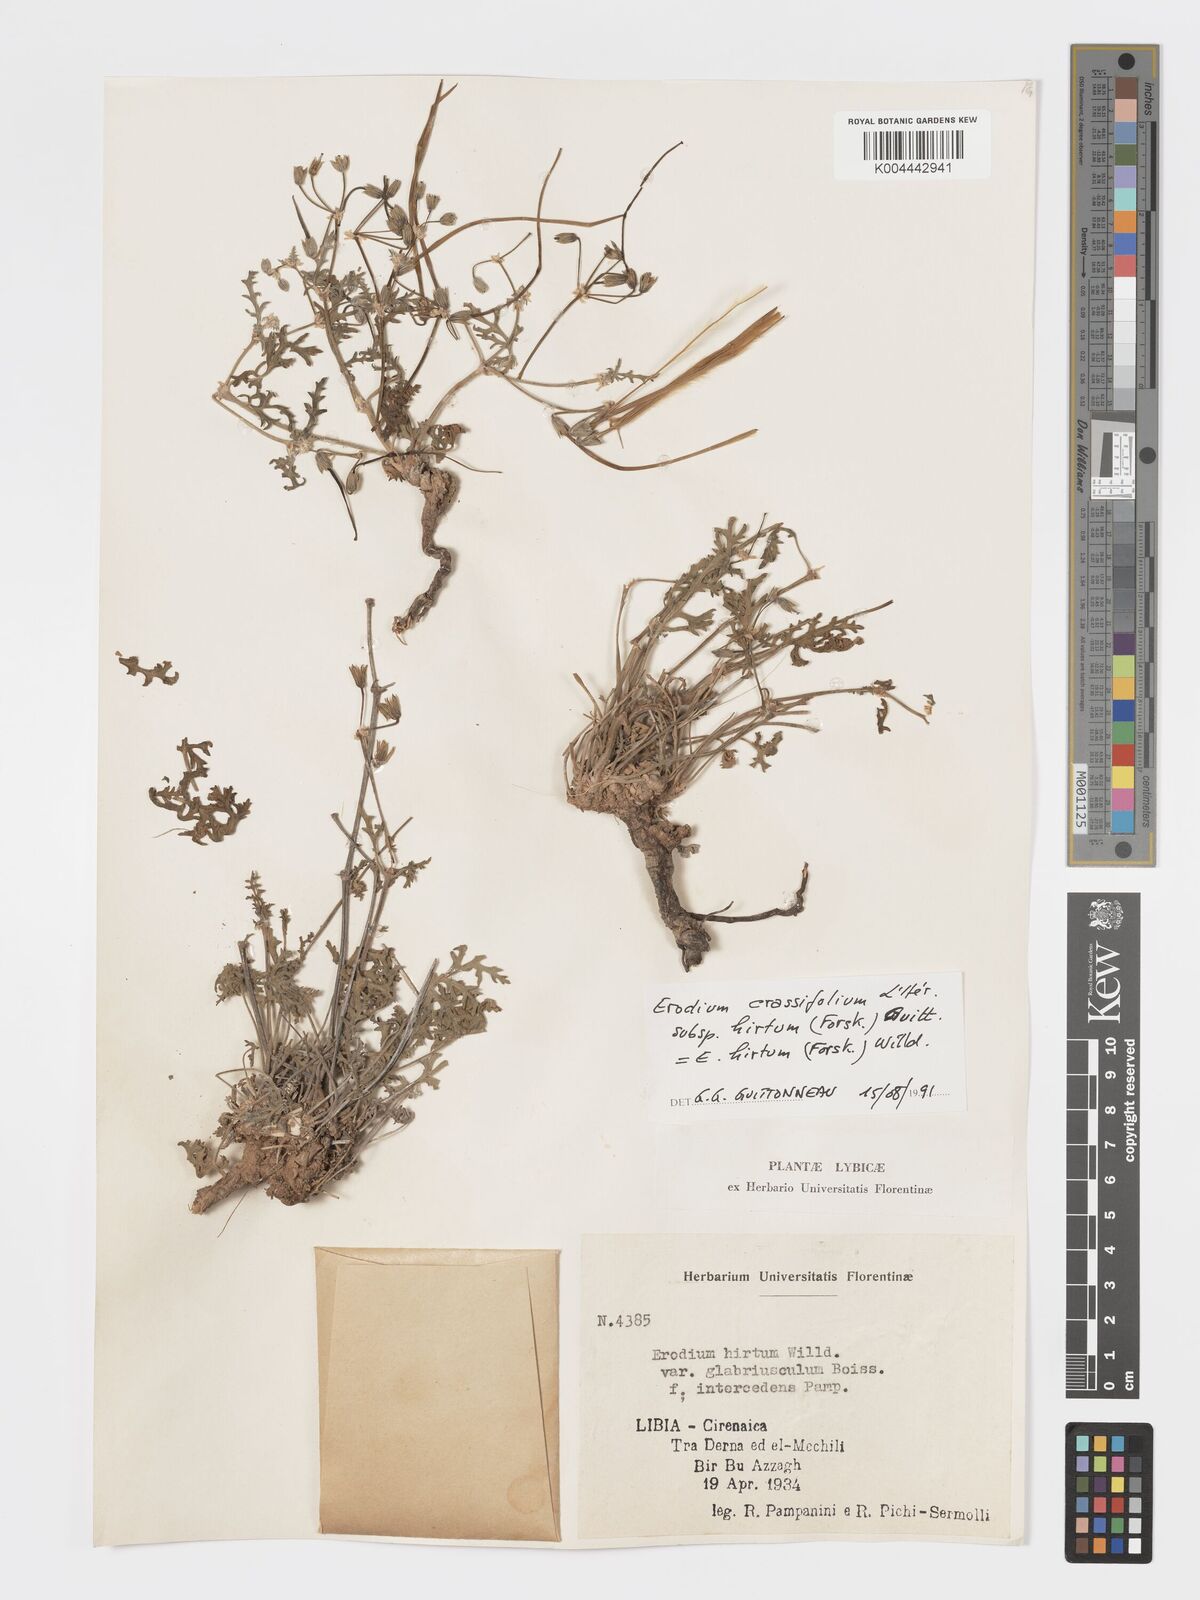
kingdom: Plantae
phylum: Tracheophyta
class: Magnoliopsida
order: Geraniales
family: Geraniaceae
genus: Erodium
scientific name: Erodium crassifolium
